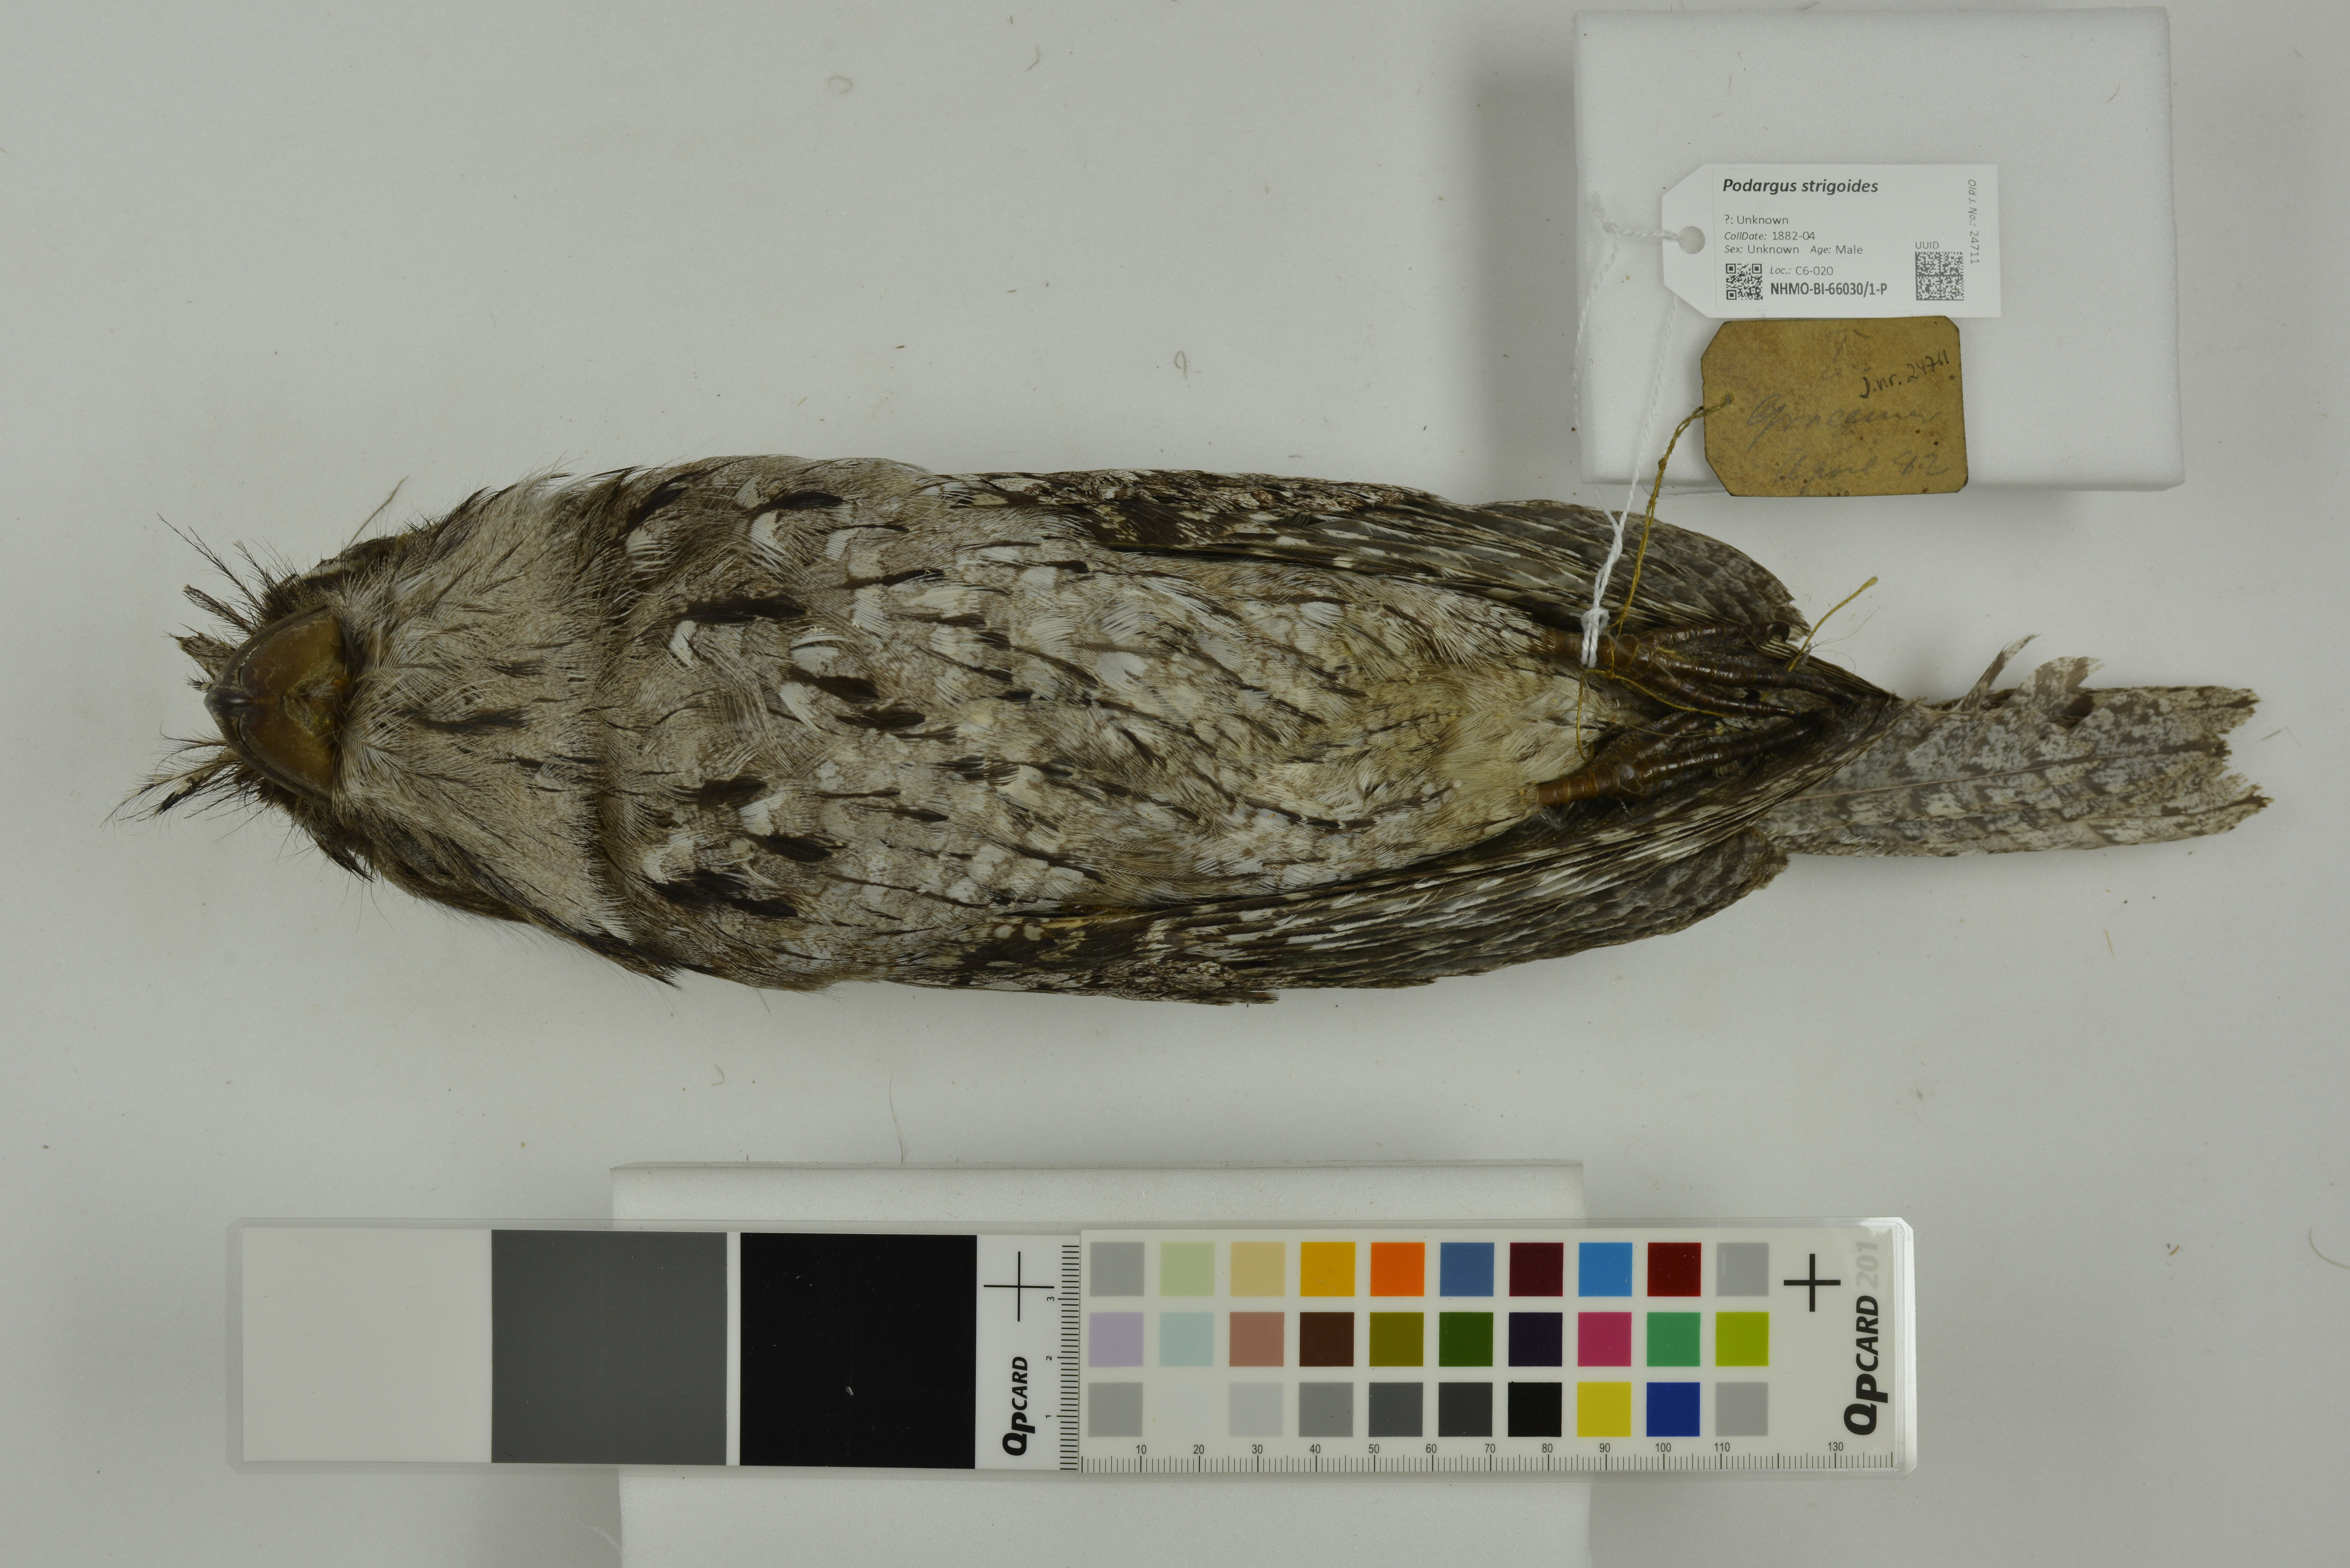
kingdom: Animalia
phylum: Chordata
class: Aves
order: Caprimulgiformes
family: Podargidae
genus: Podargus
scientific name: Podargus strigoides
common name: Tawny frogmouth
